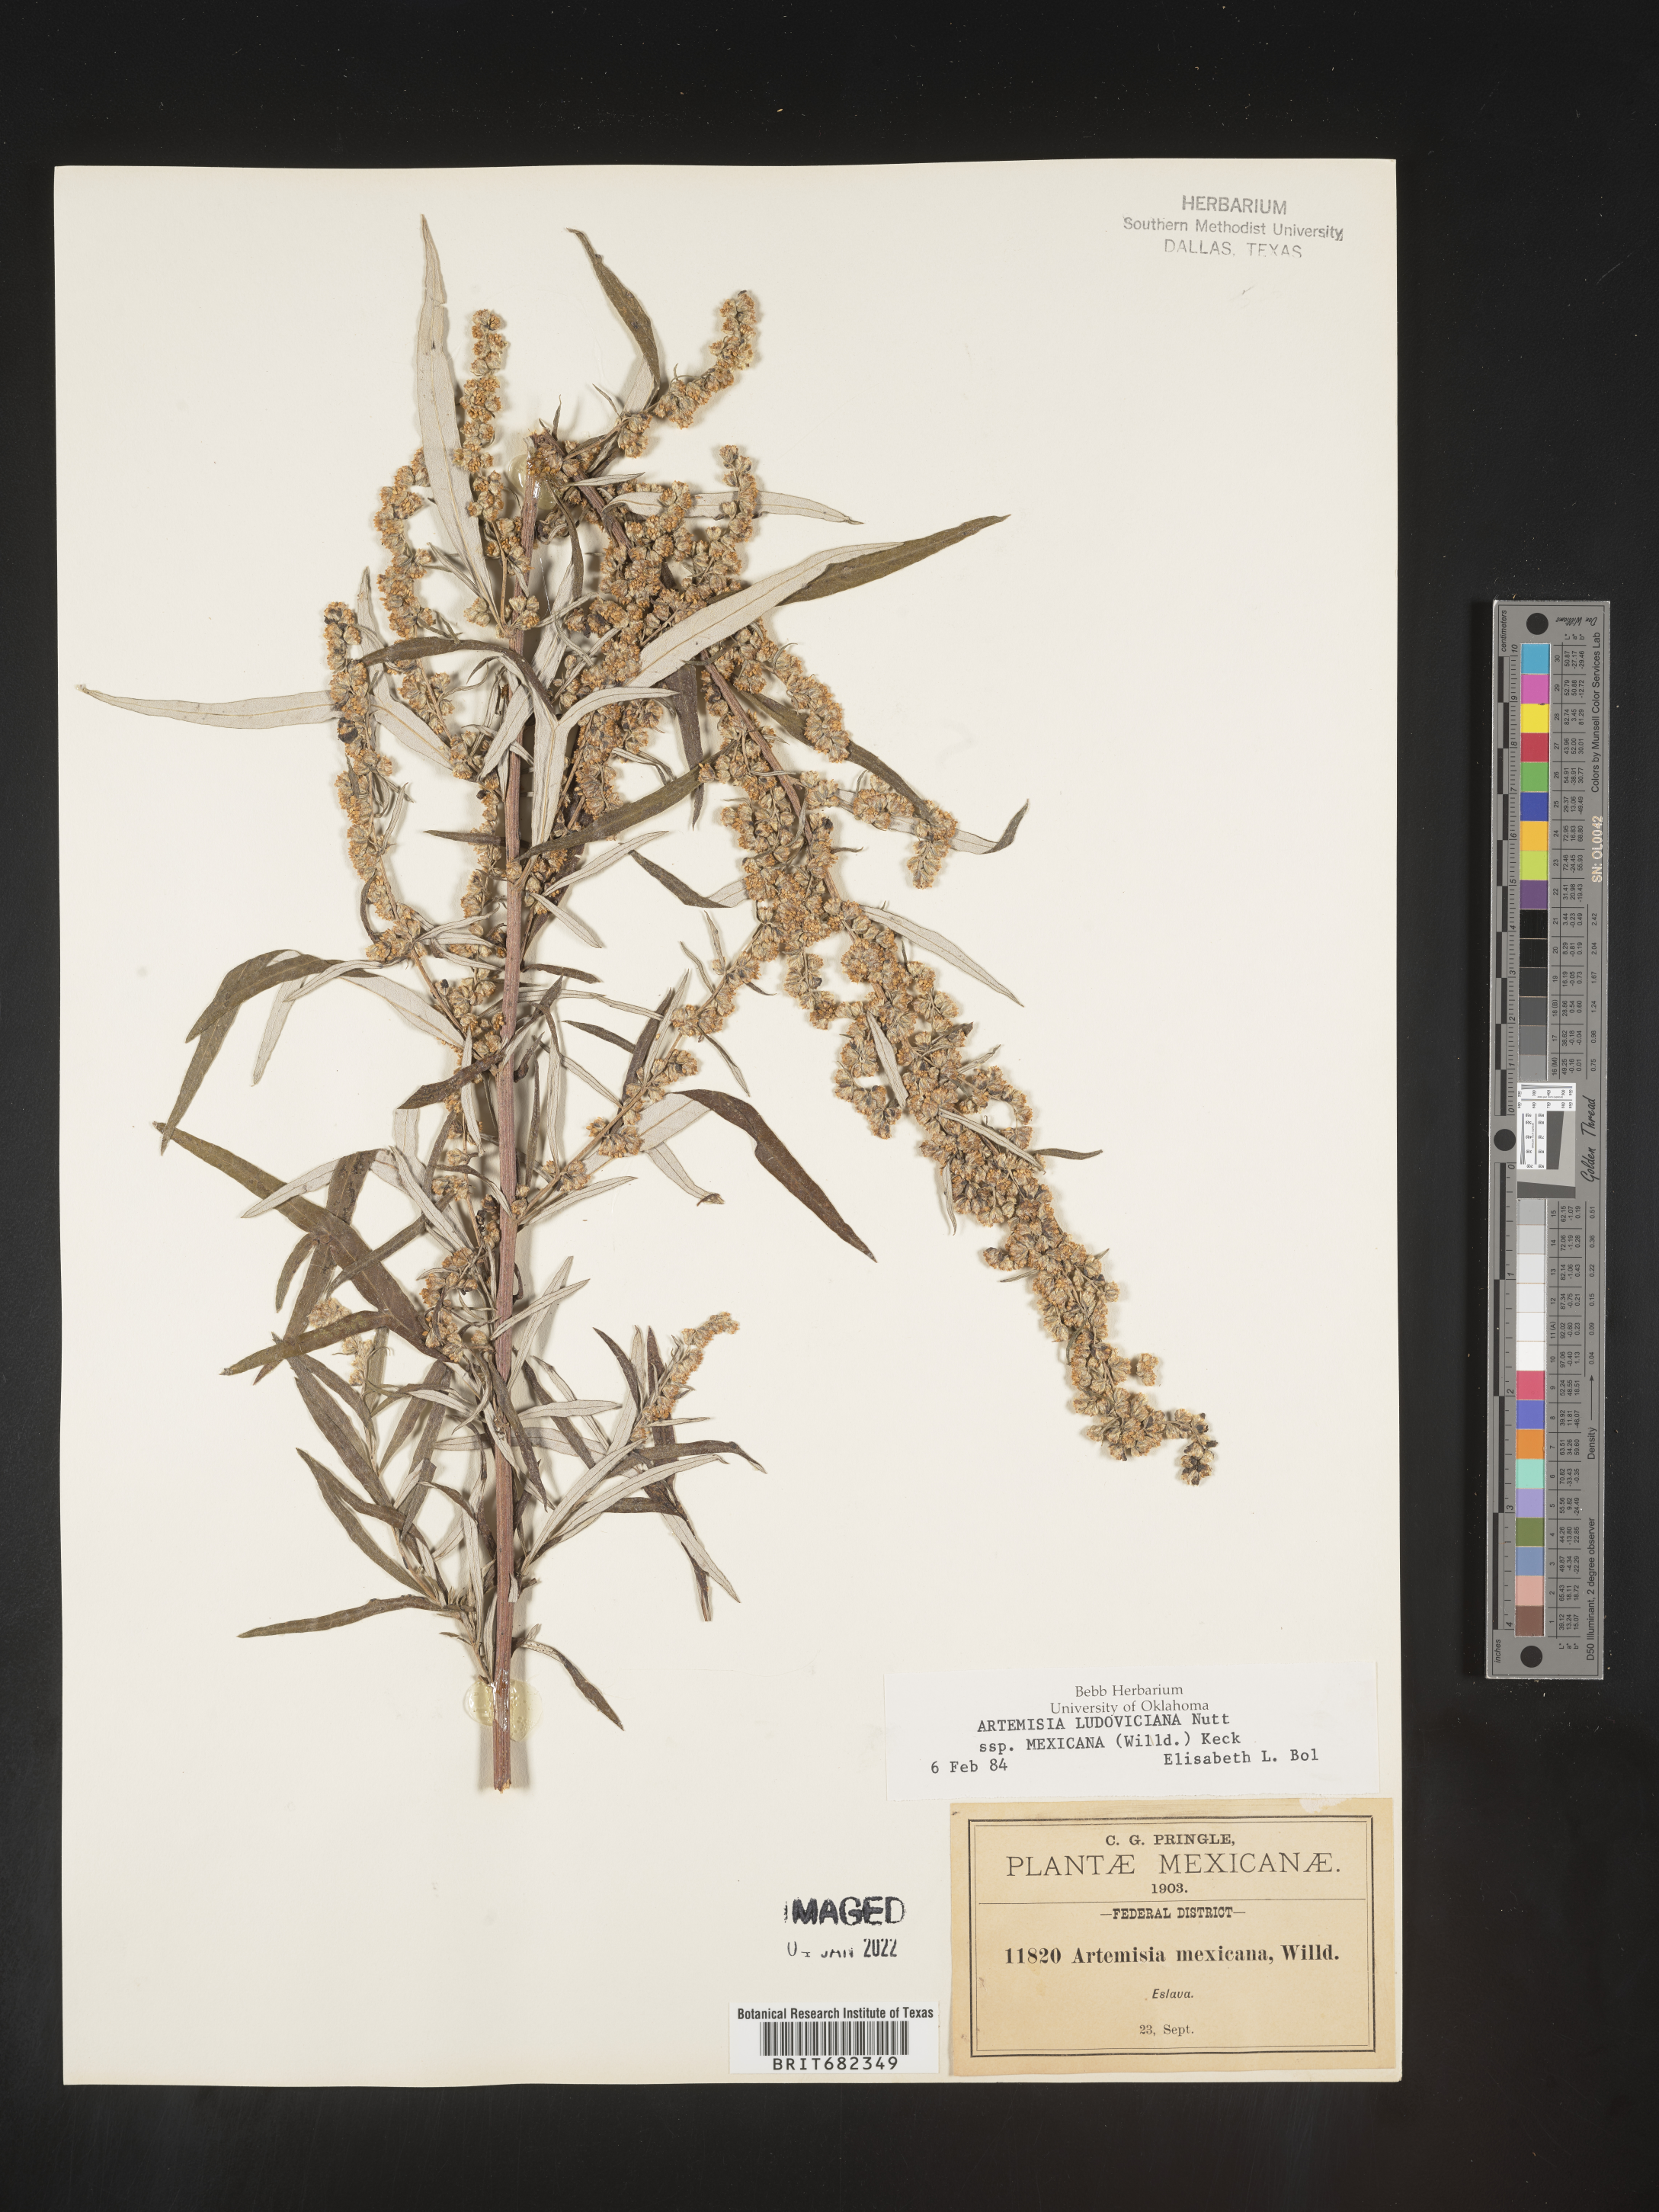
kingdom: Plantae
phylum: Tracheophyta
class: Magnoliopsida
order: Asterales
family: Asteraceae
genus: Artemisia
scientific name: Artemisia
